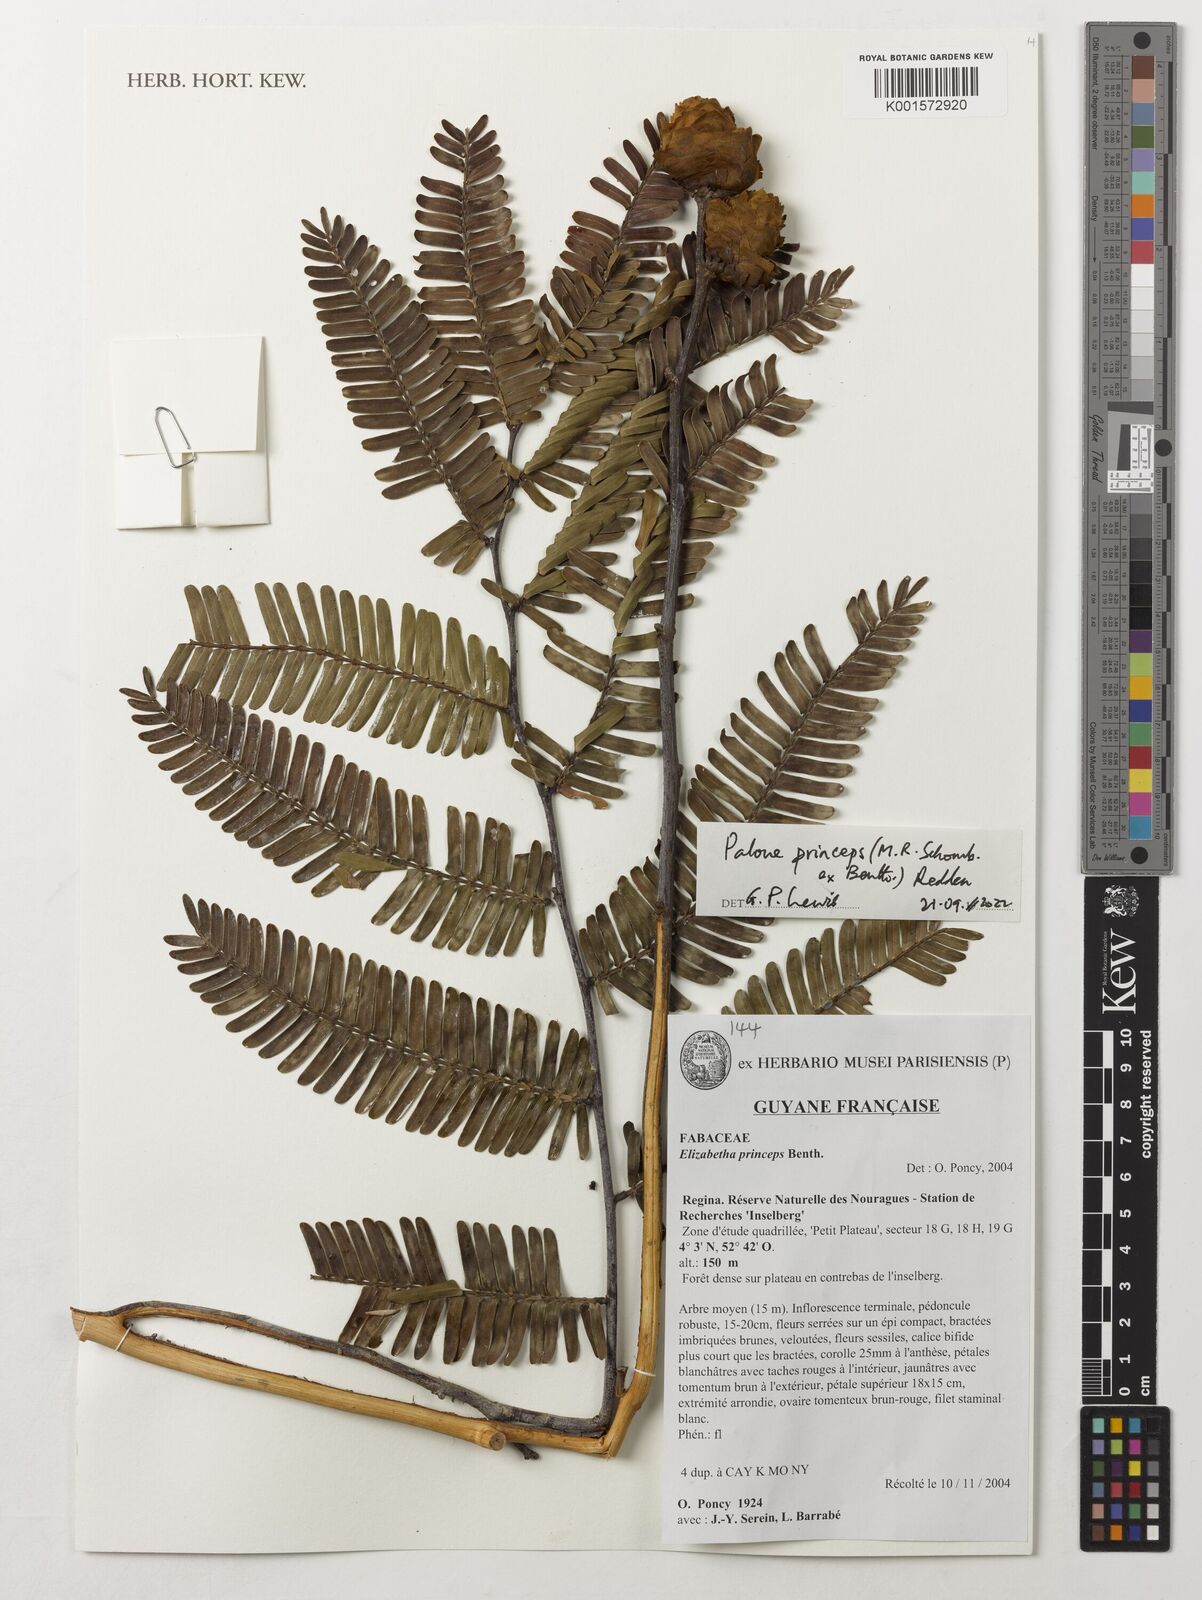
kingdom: Plantae
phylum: Tracheophyta
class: Magnoliopsida
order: Fabales
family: Fabaceae
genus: Paloue
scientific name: Paloue princeps
